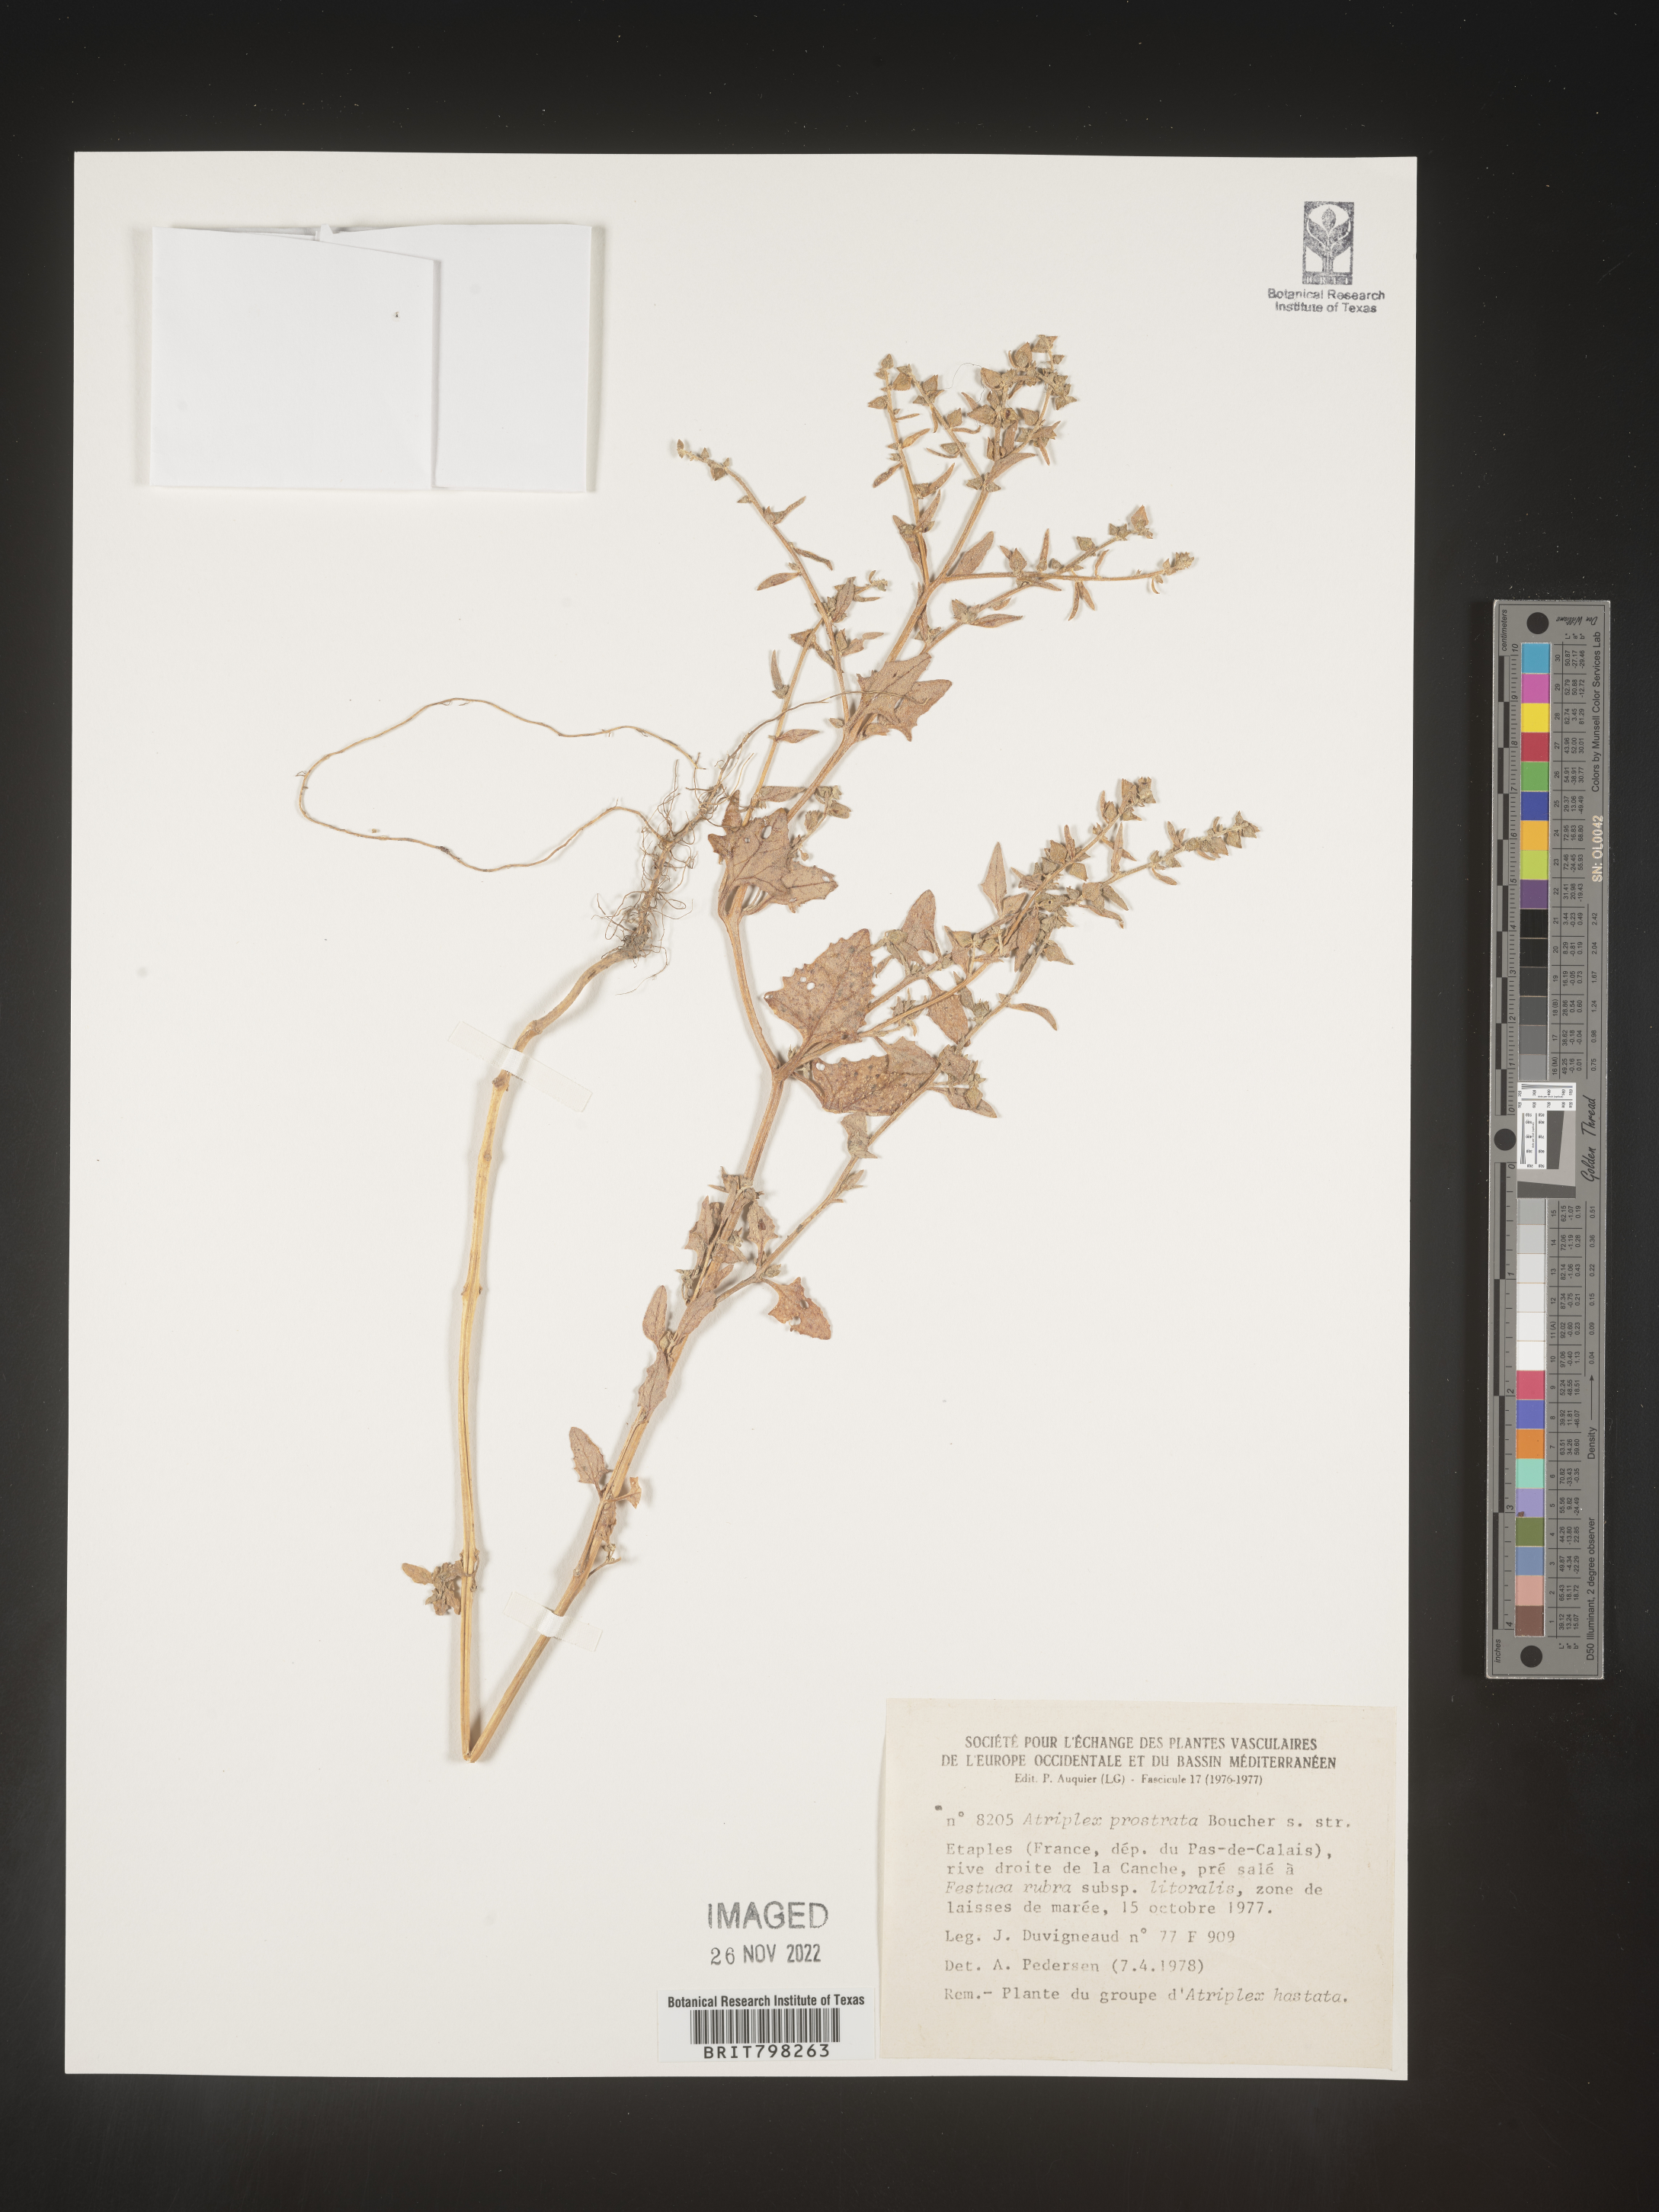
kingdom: Plantae
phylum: Tracheophyta
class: Magnoliopsida
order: Caryophyllales
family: Amaranthaceae
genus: Atriplex
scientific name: Atriplex
